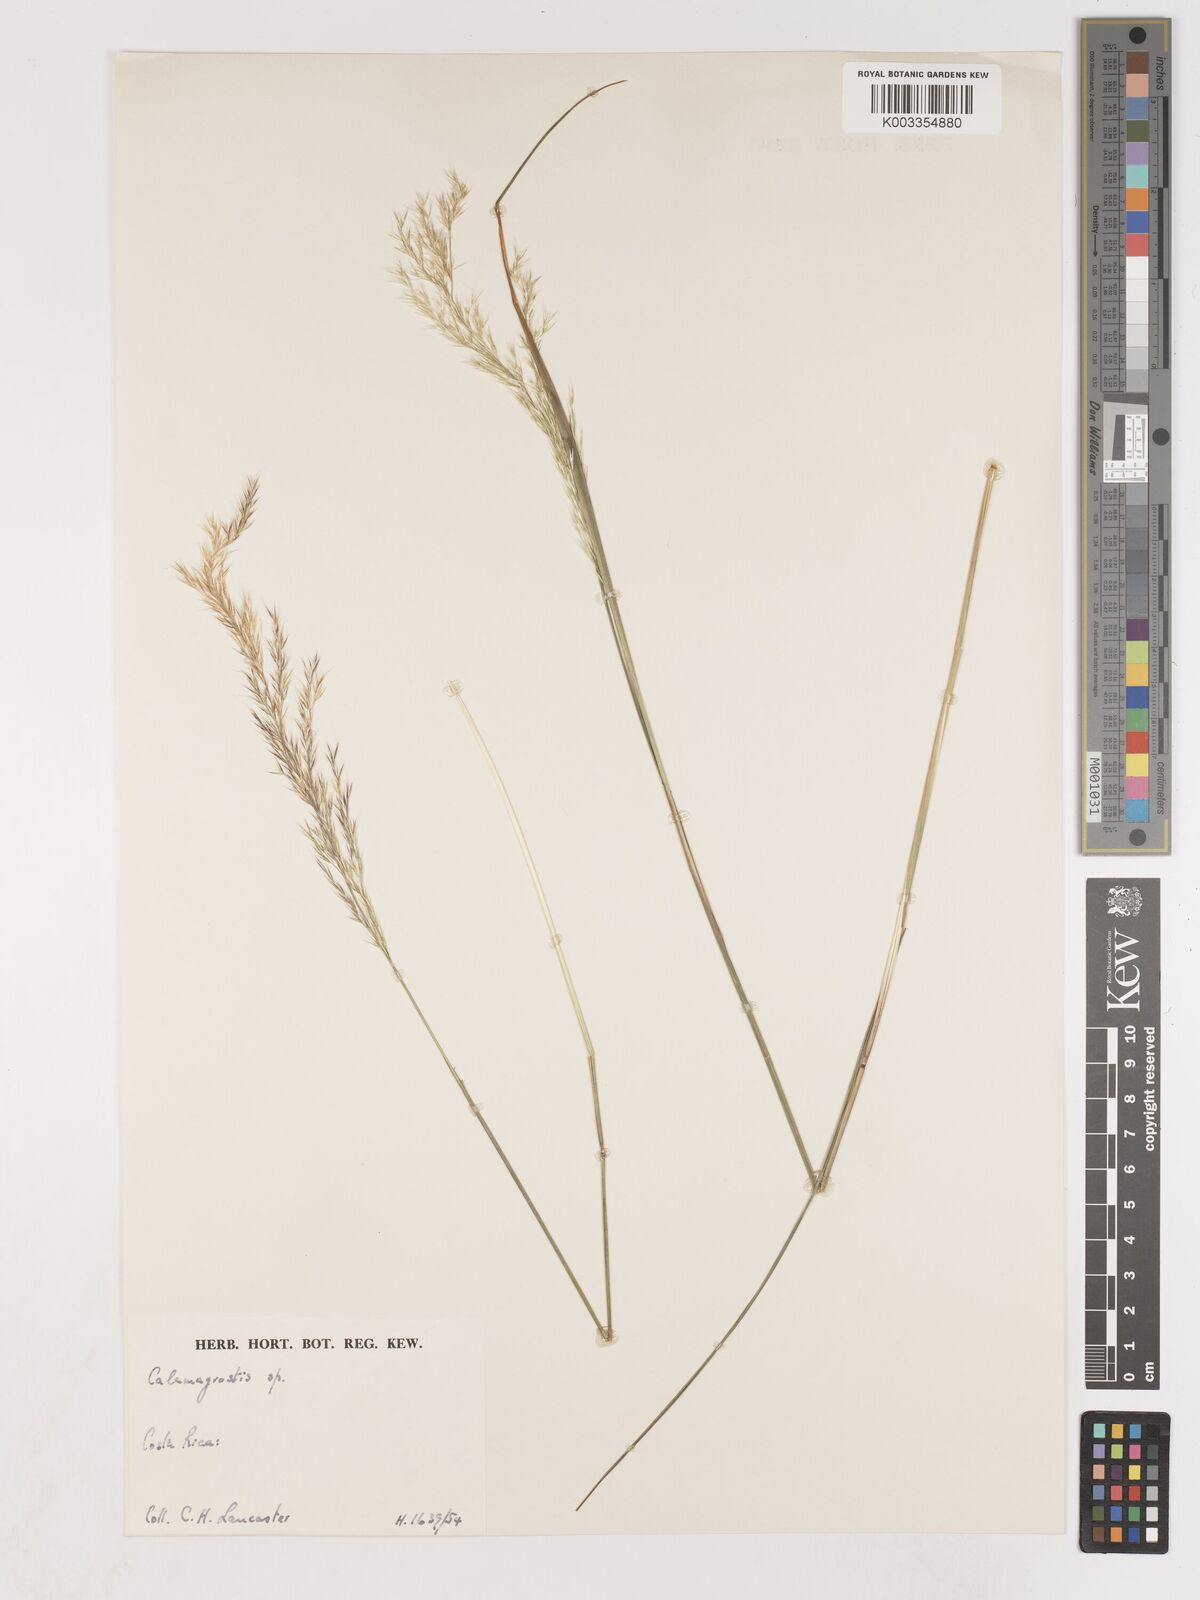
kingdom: Plantae
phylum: Tracheophyta
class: Liliopsida
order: Poales
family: Poaceae
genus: Calamagrostis
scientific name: Calamagrostis
